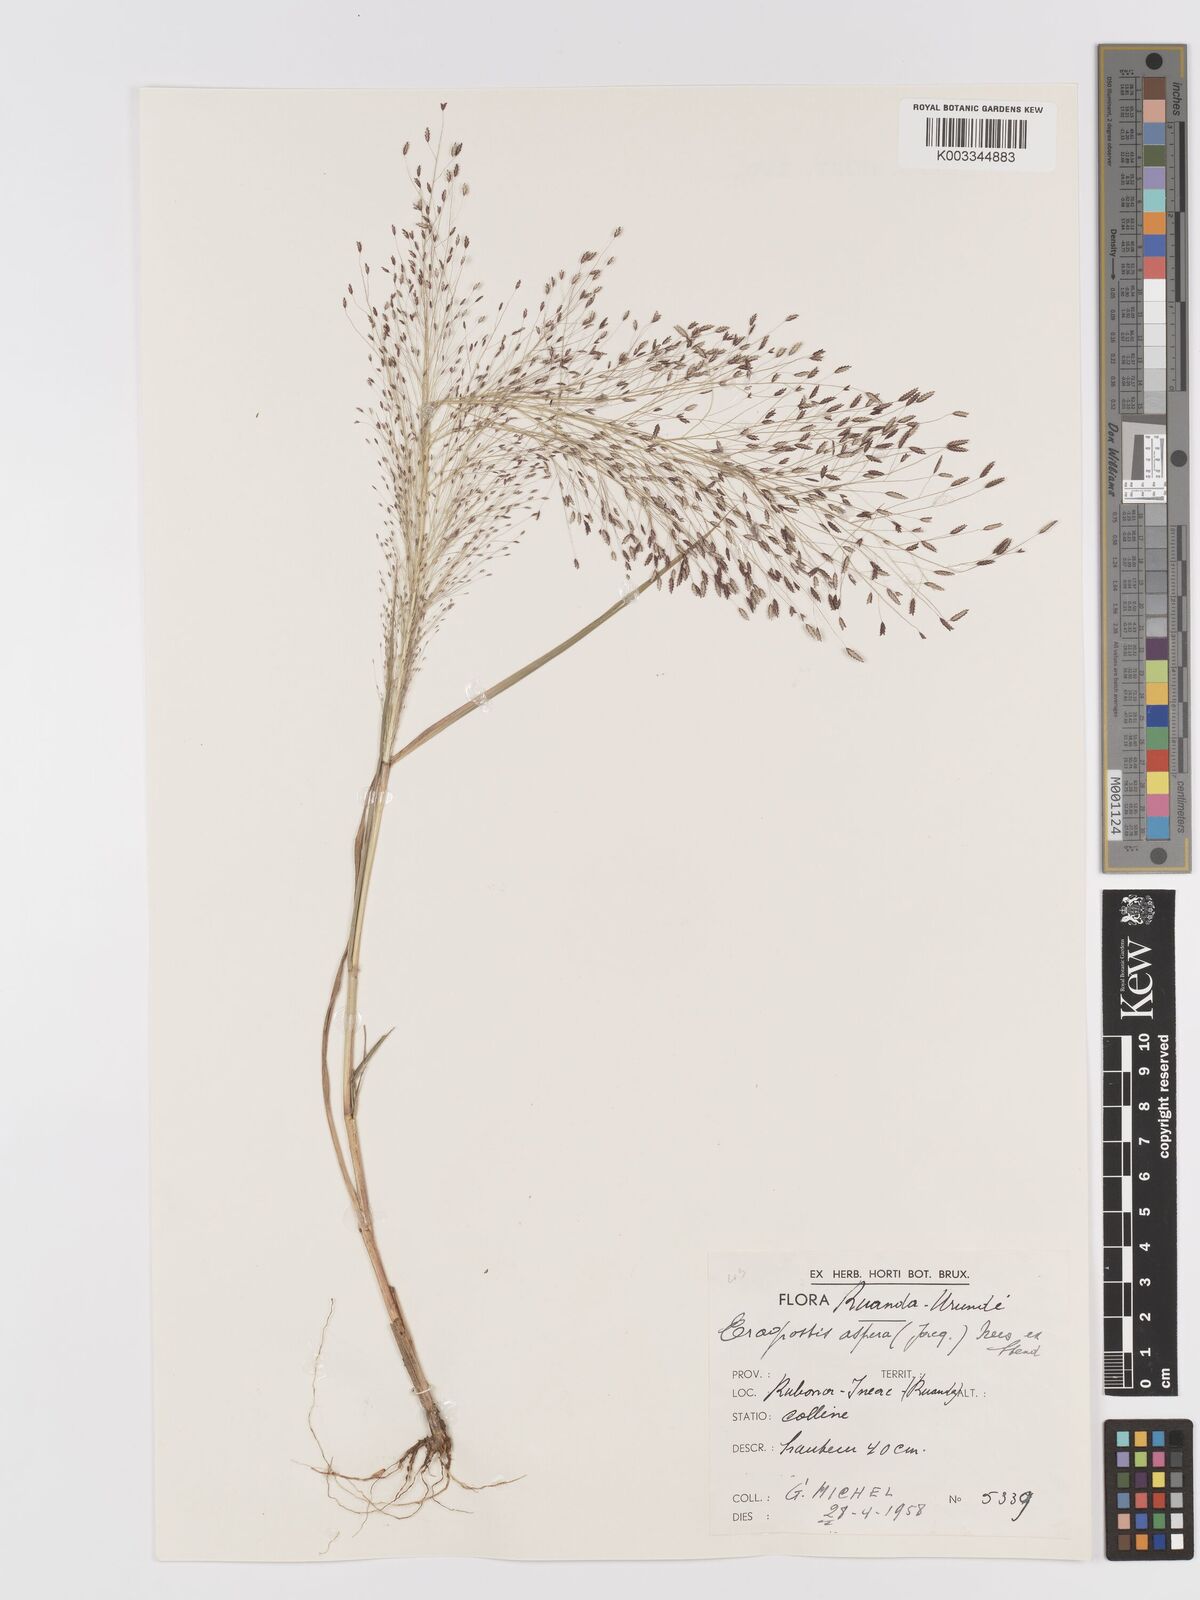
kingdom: Plantae
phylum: Tracheophyta
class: Liliopsida
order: Poales
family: Poaceae
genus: Eragrostis
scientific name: Eragrostis aspera
